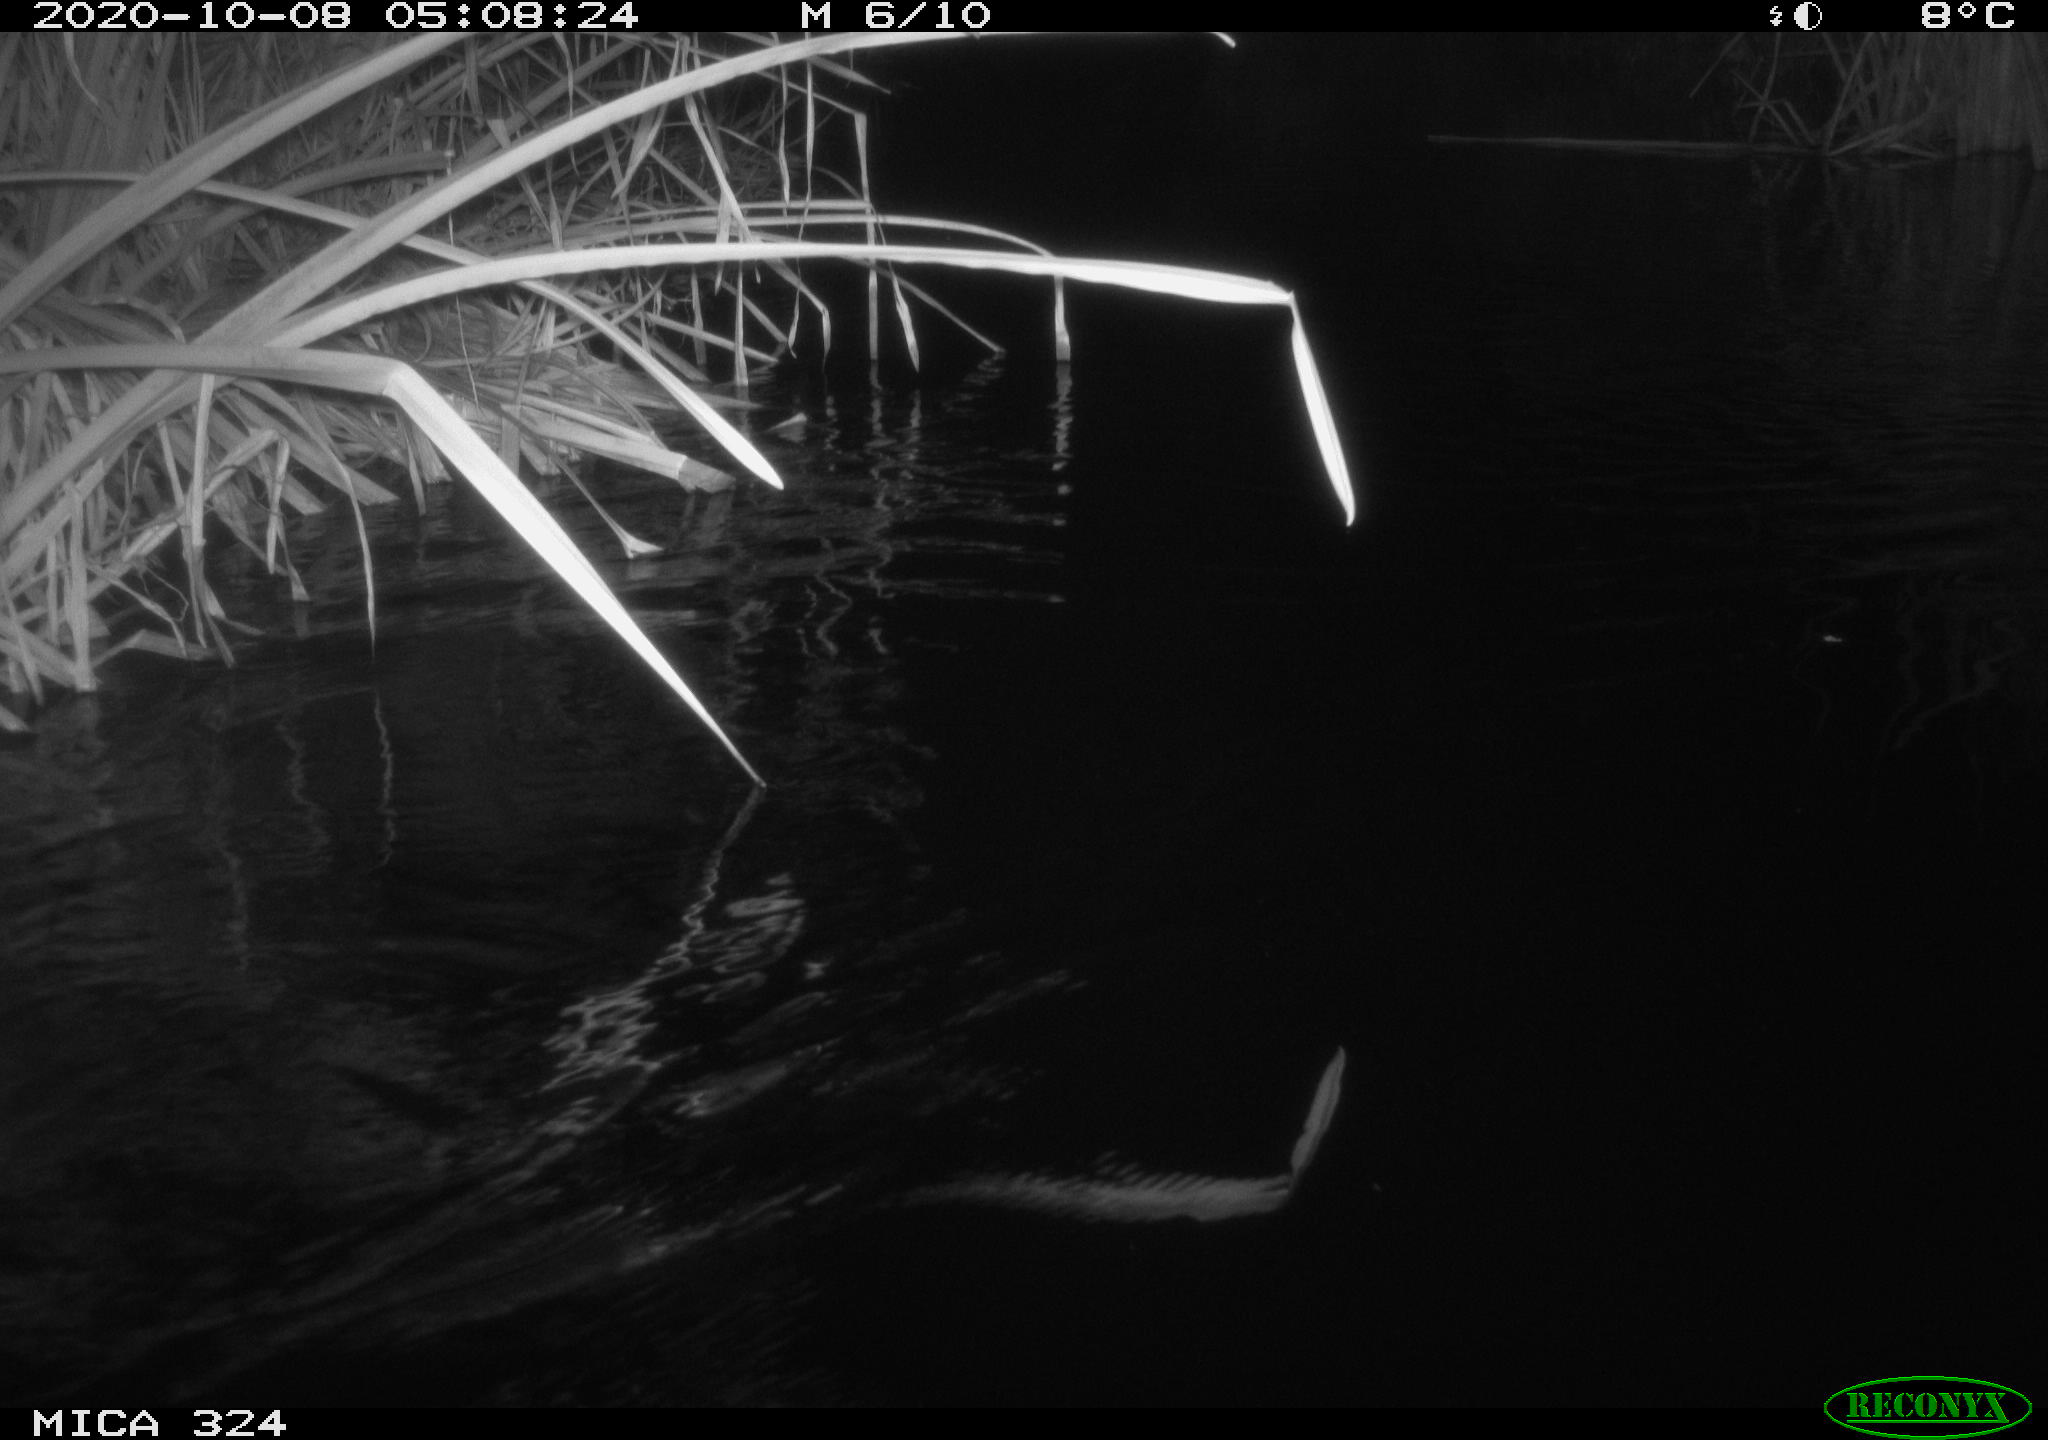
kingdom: Animalia
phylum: Chordata
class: Mammalia
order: Rodentia
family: Muridae
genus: Rattus
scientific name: Rattus norvegicus
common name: Brown rat
